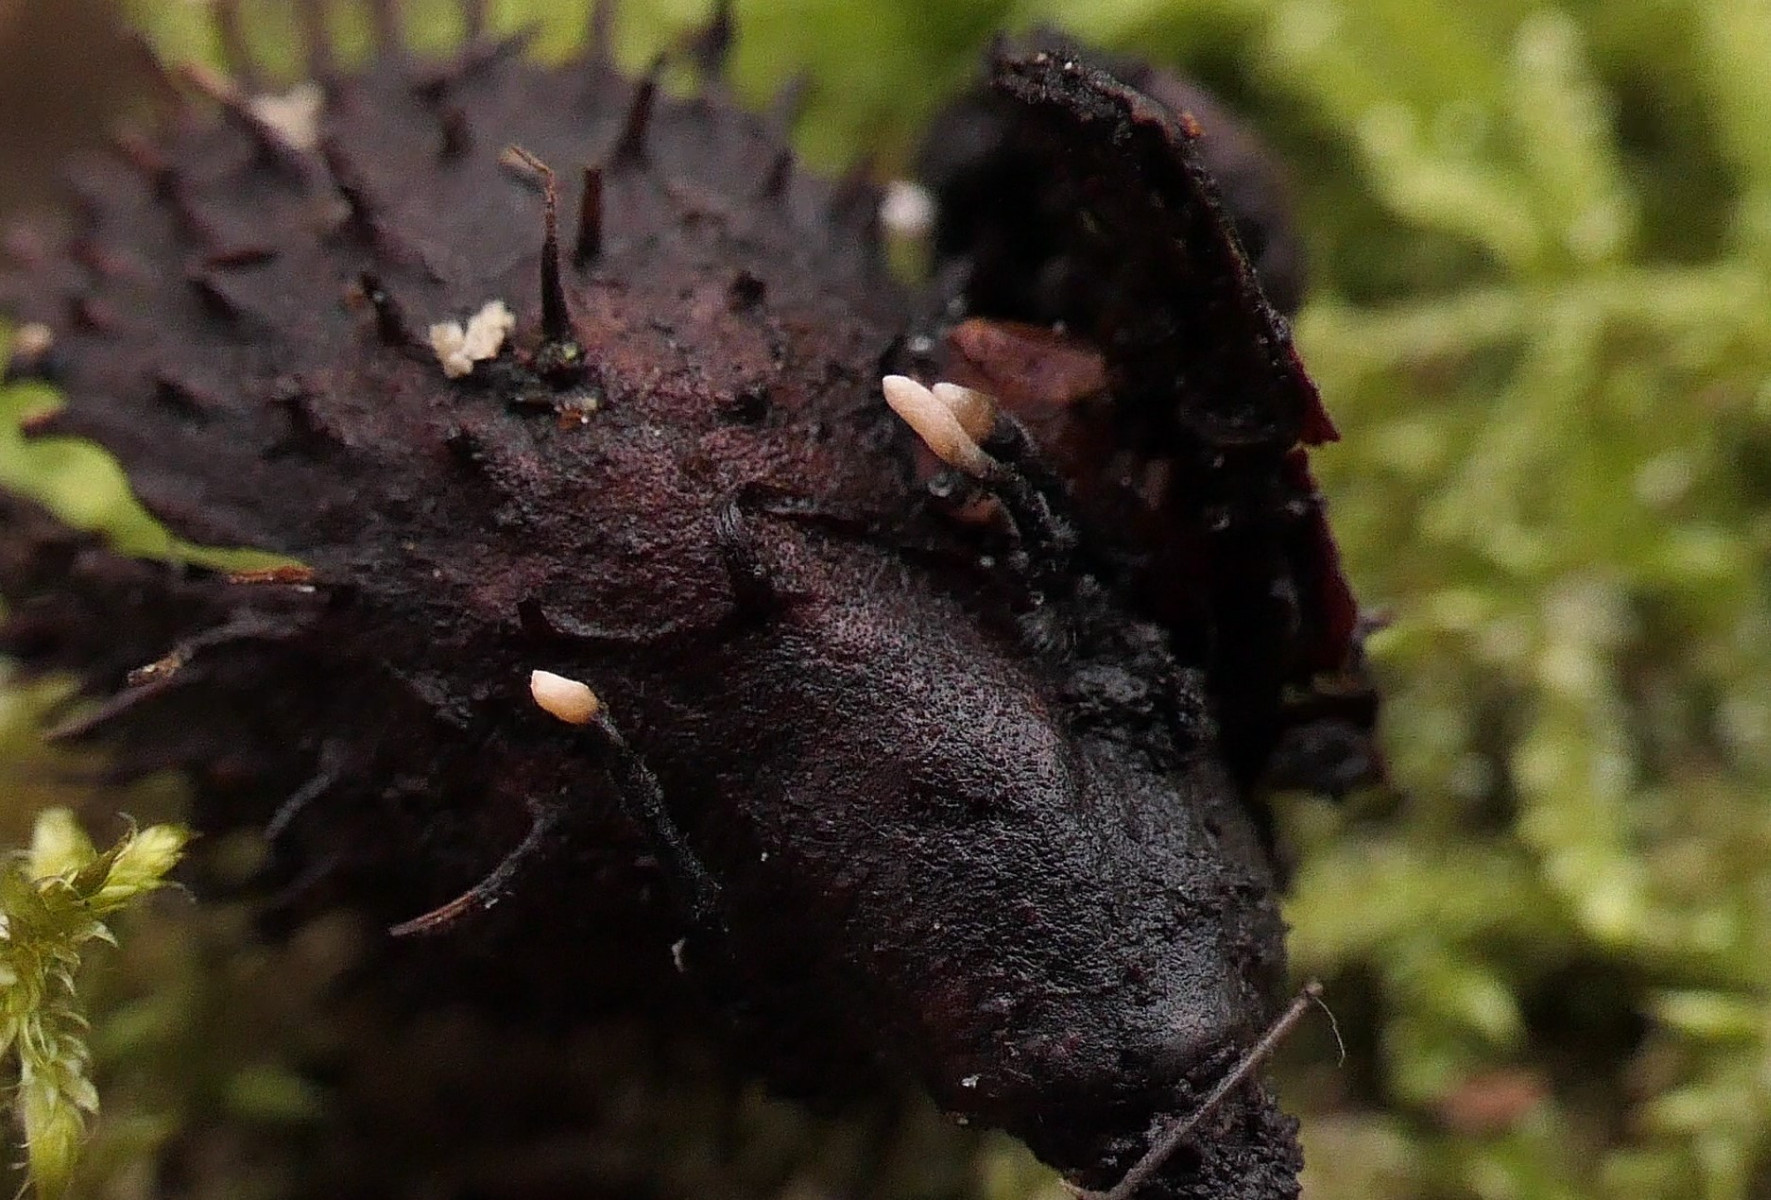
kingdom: Fungi
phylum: Ascomycota
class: Sordariomycetes
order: Xylariales
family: Xylariaceae
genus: Xylaria
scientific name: Xylaria carpophila
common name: bogskål-stødsvamp
